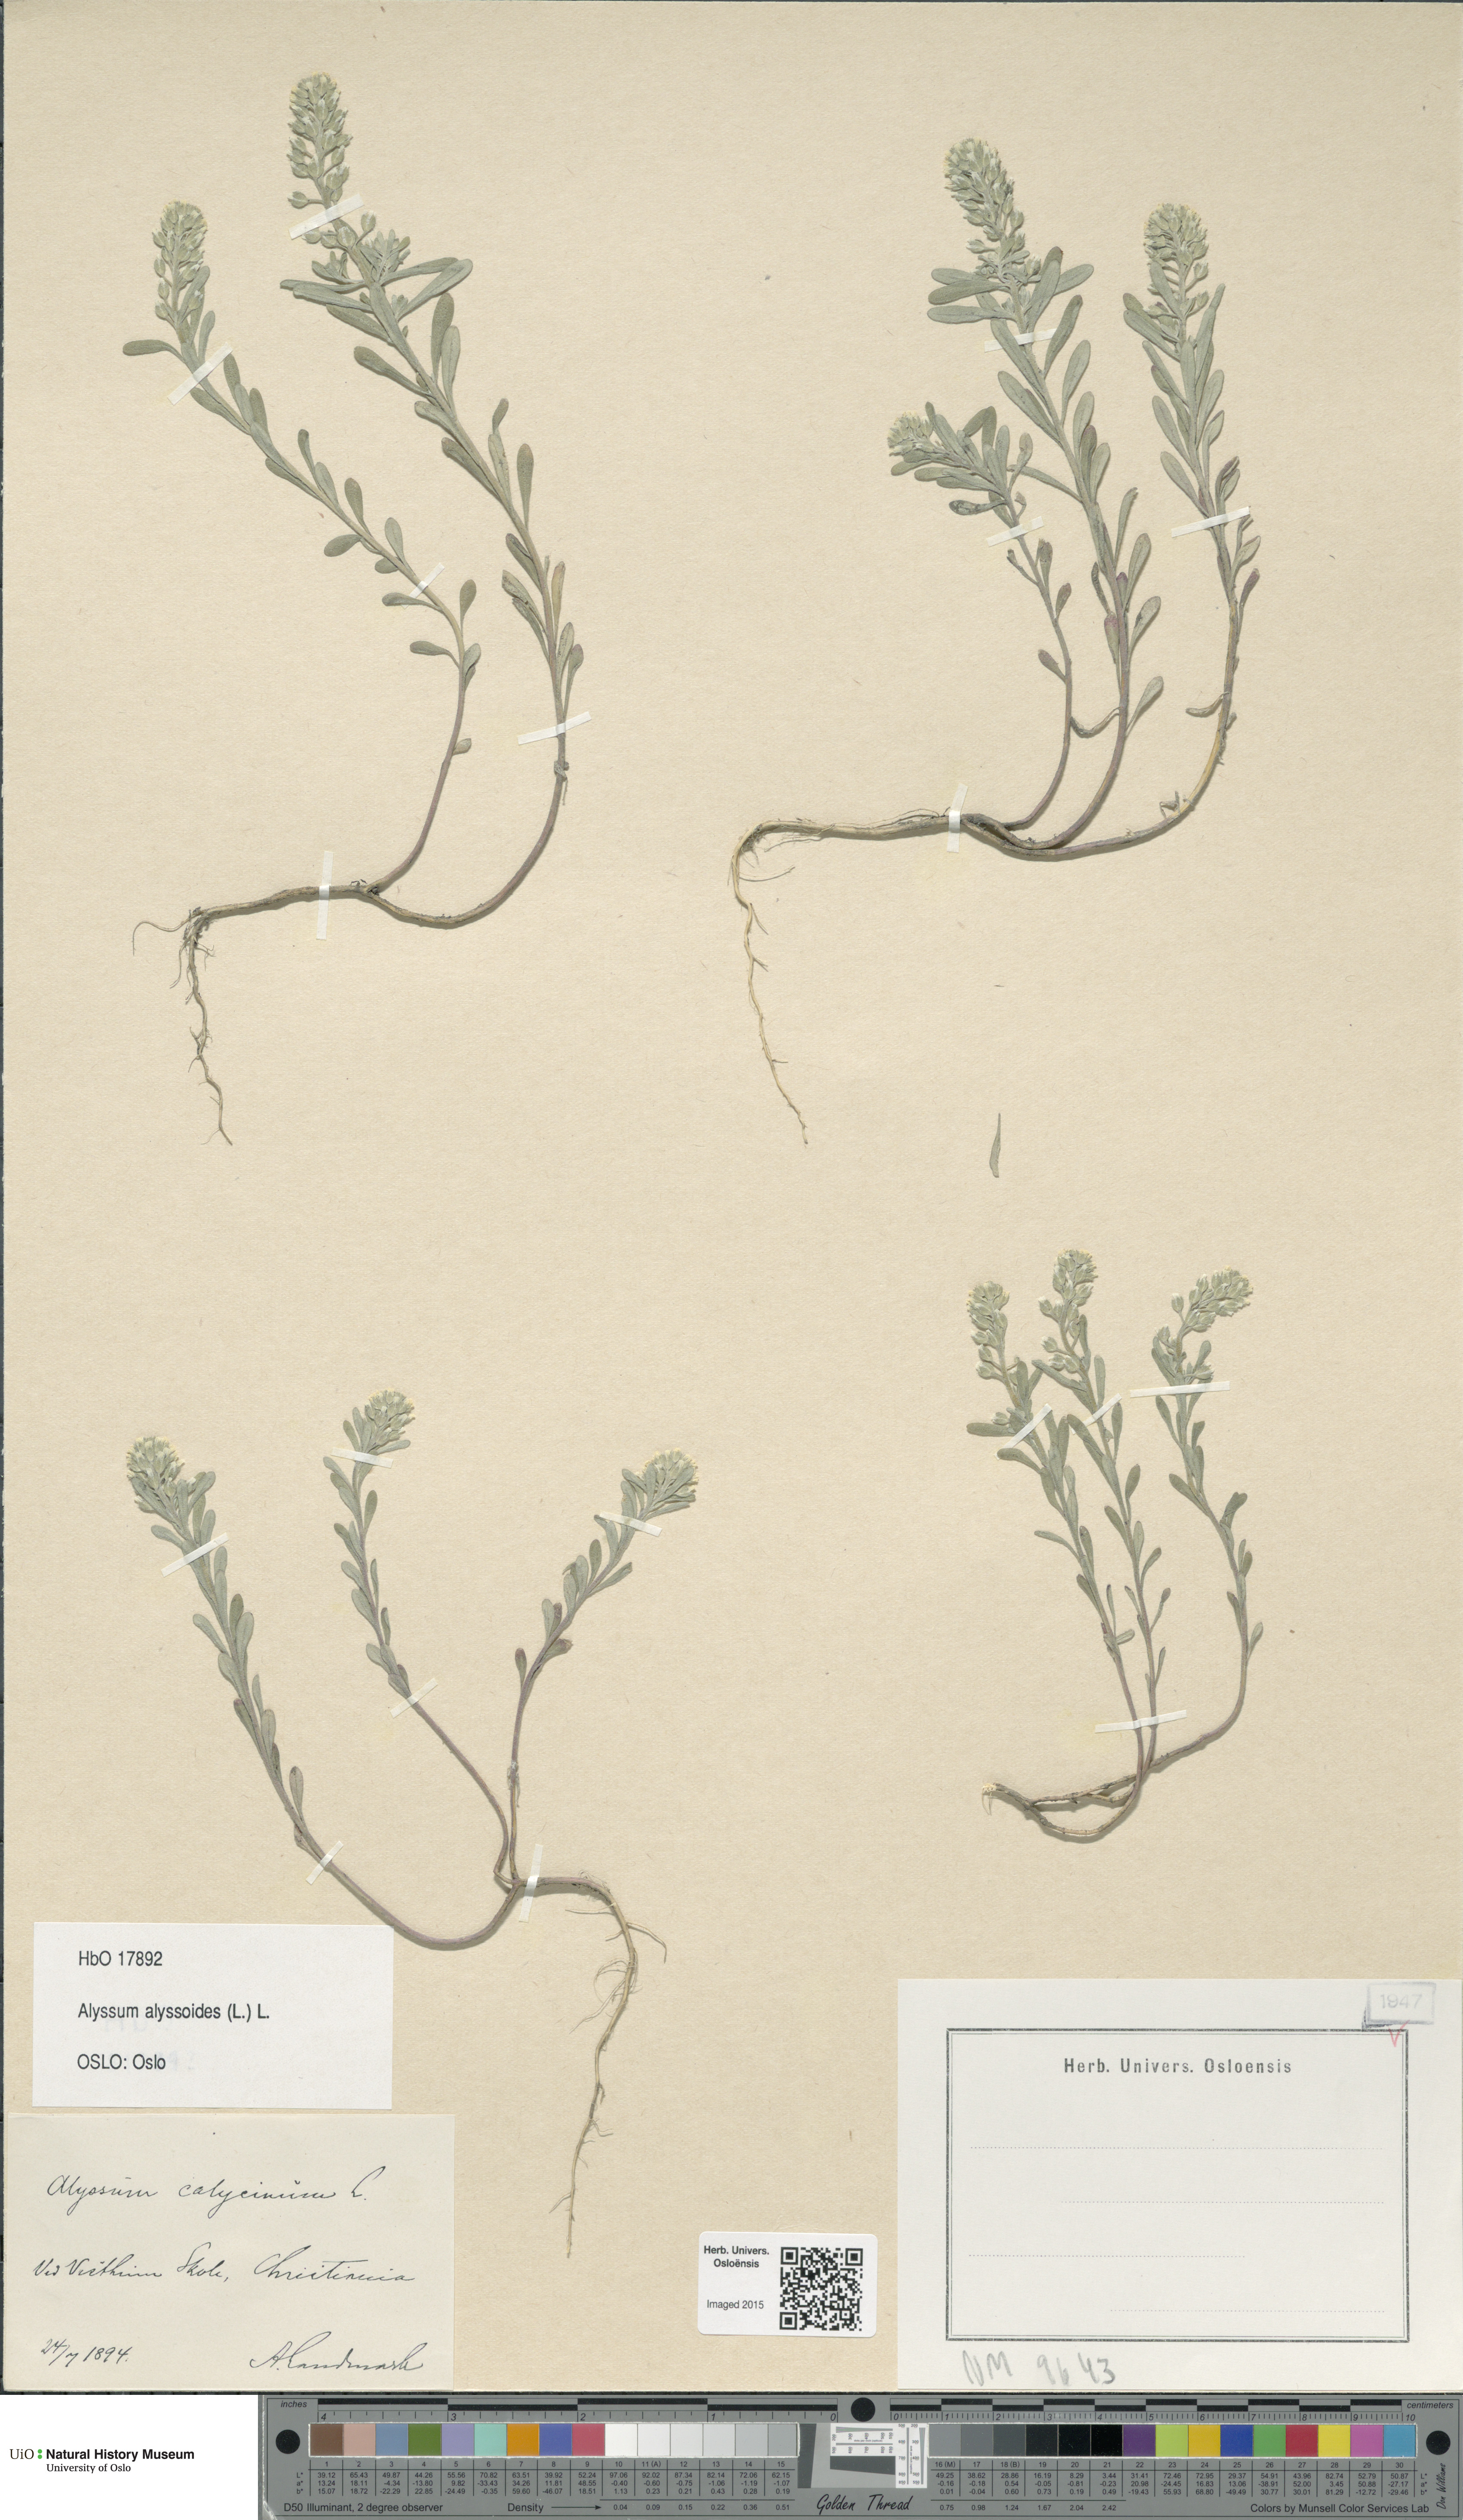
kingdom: Plantae
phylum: Tracheophyta
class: Magnoliopsida
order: Brassicales
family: Brassicaceae
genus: Alyssum
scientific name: Alyssum alyssoides
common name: Small alison
